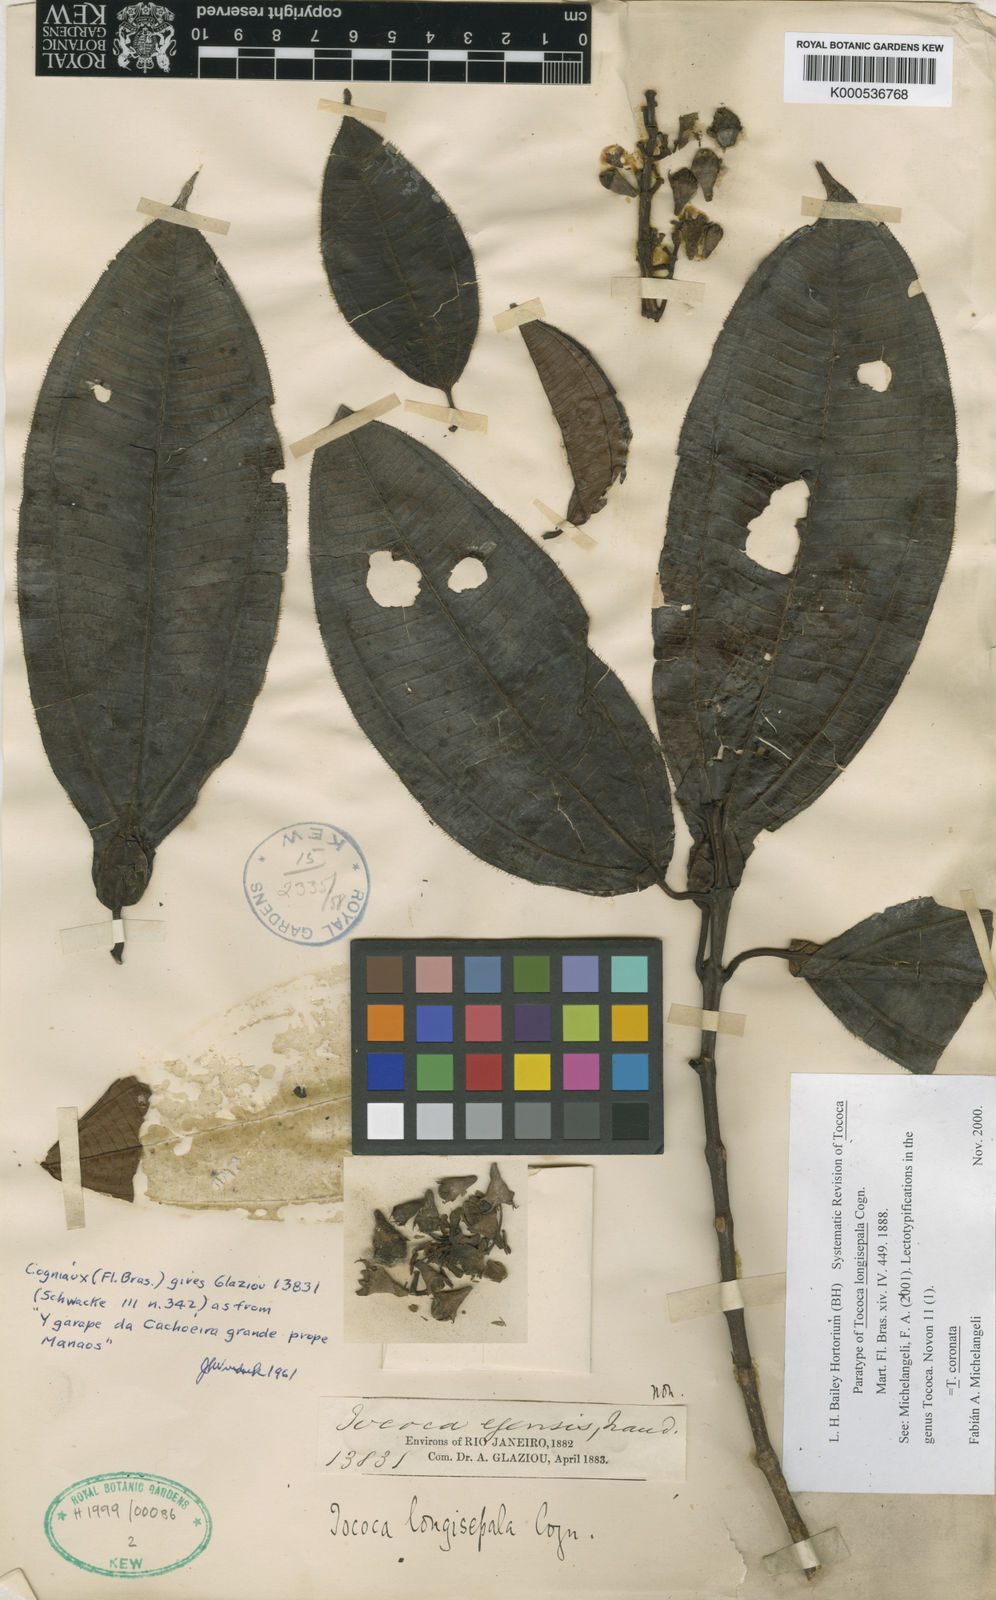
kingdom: Plantae
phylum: Tracheophyta
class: Magnoliopsida
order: Myrtales
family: Melastomataceae
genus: Miconia
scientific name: Miconia tococoronata
